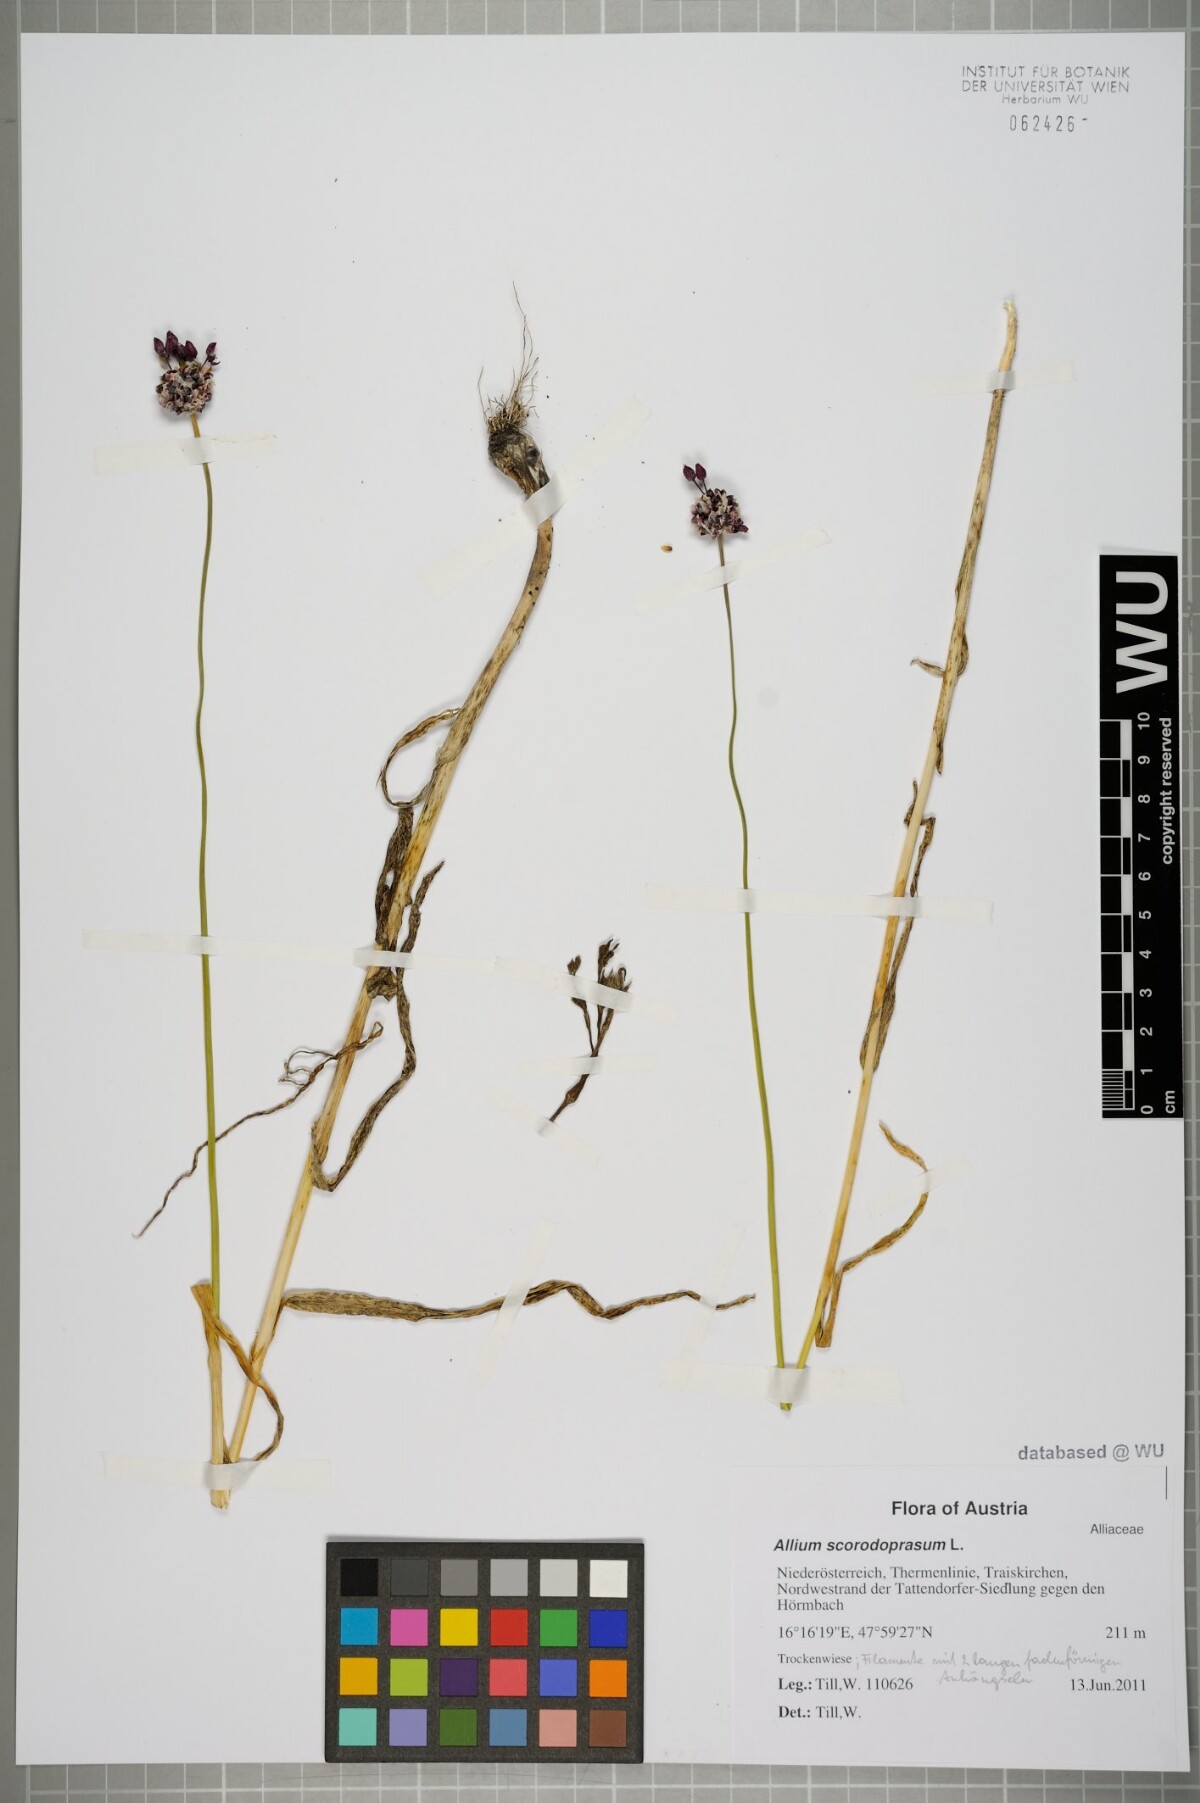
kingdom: Plantae
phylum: Tracheophyta
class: Liliopsida
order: Asparagales
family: Amaryllidaceae
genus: Allium
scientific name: Allium scorodoprasum
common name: Sand leek
